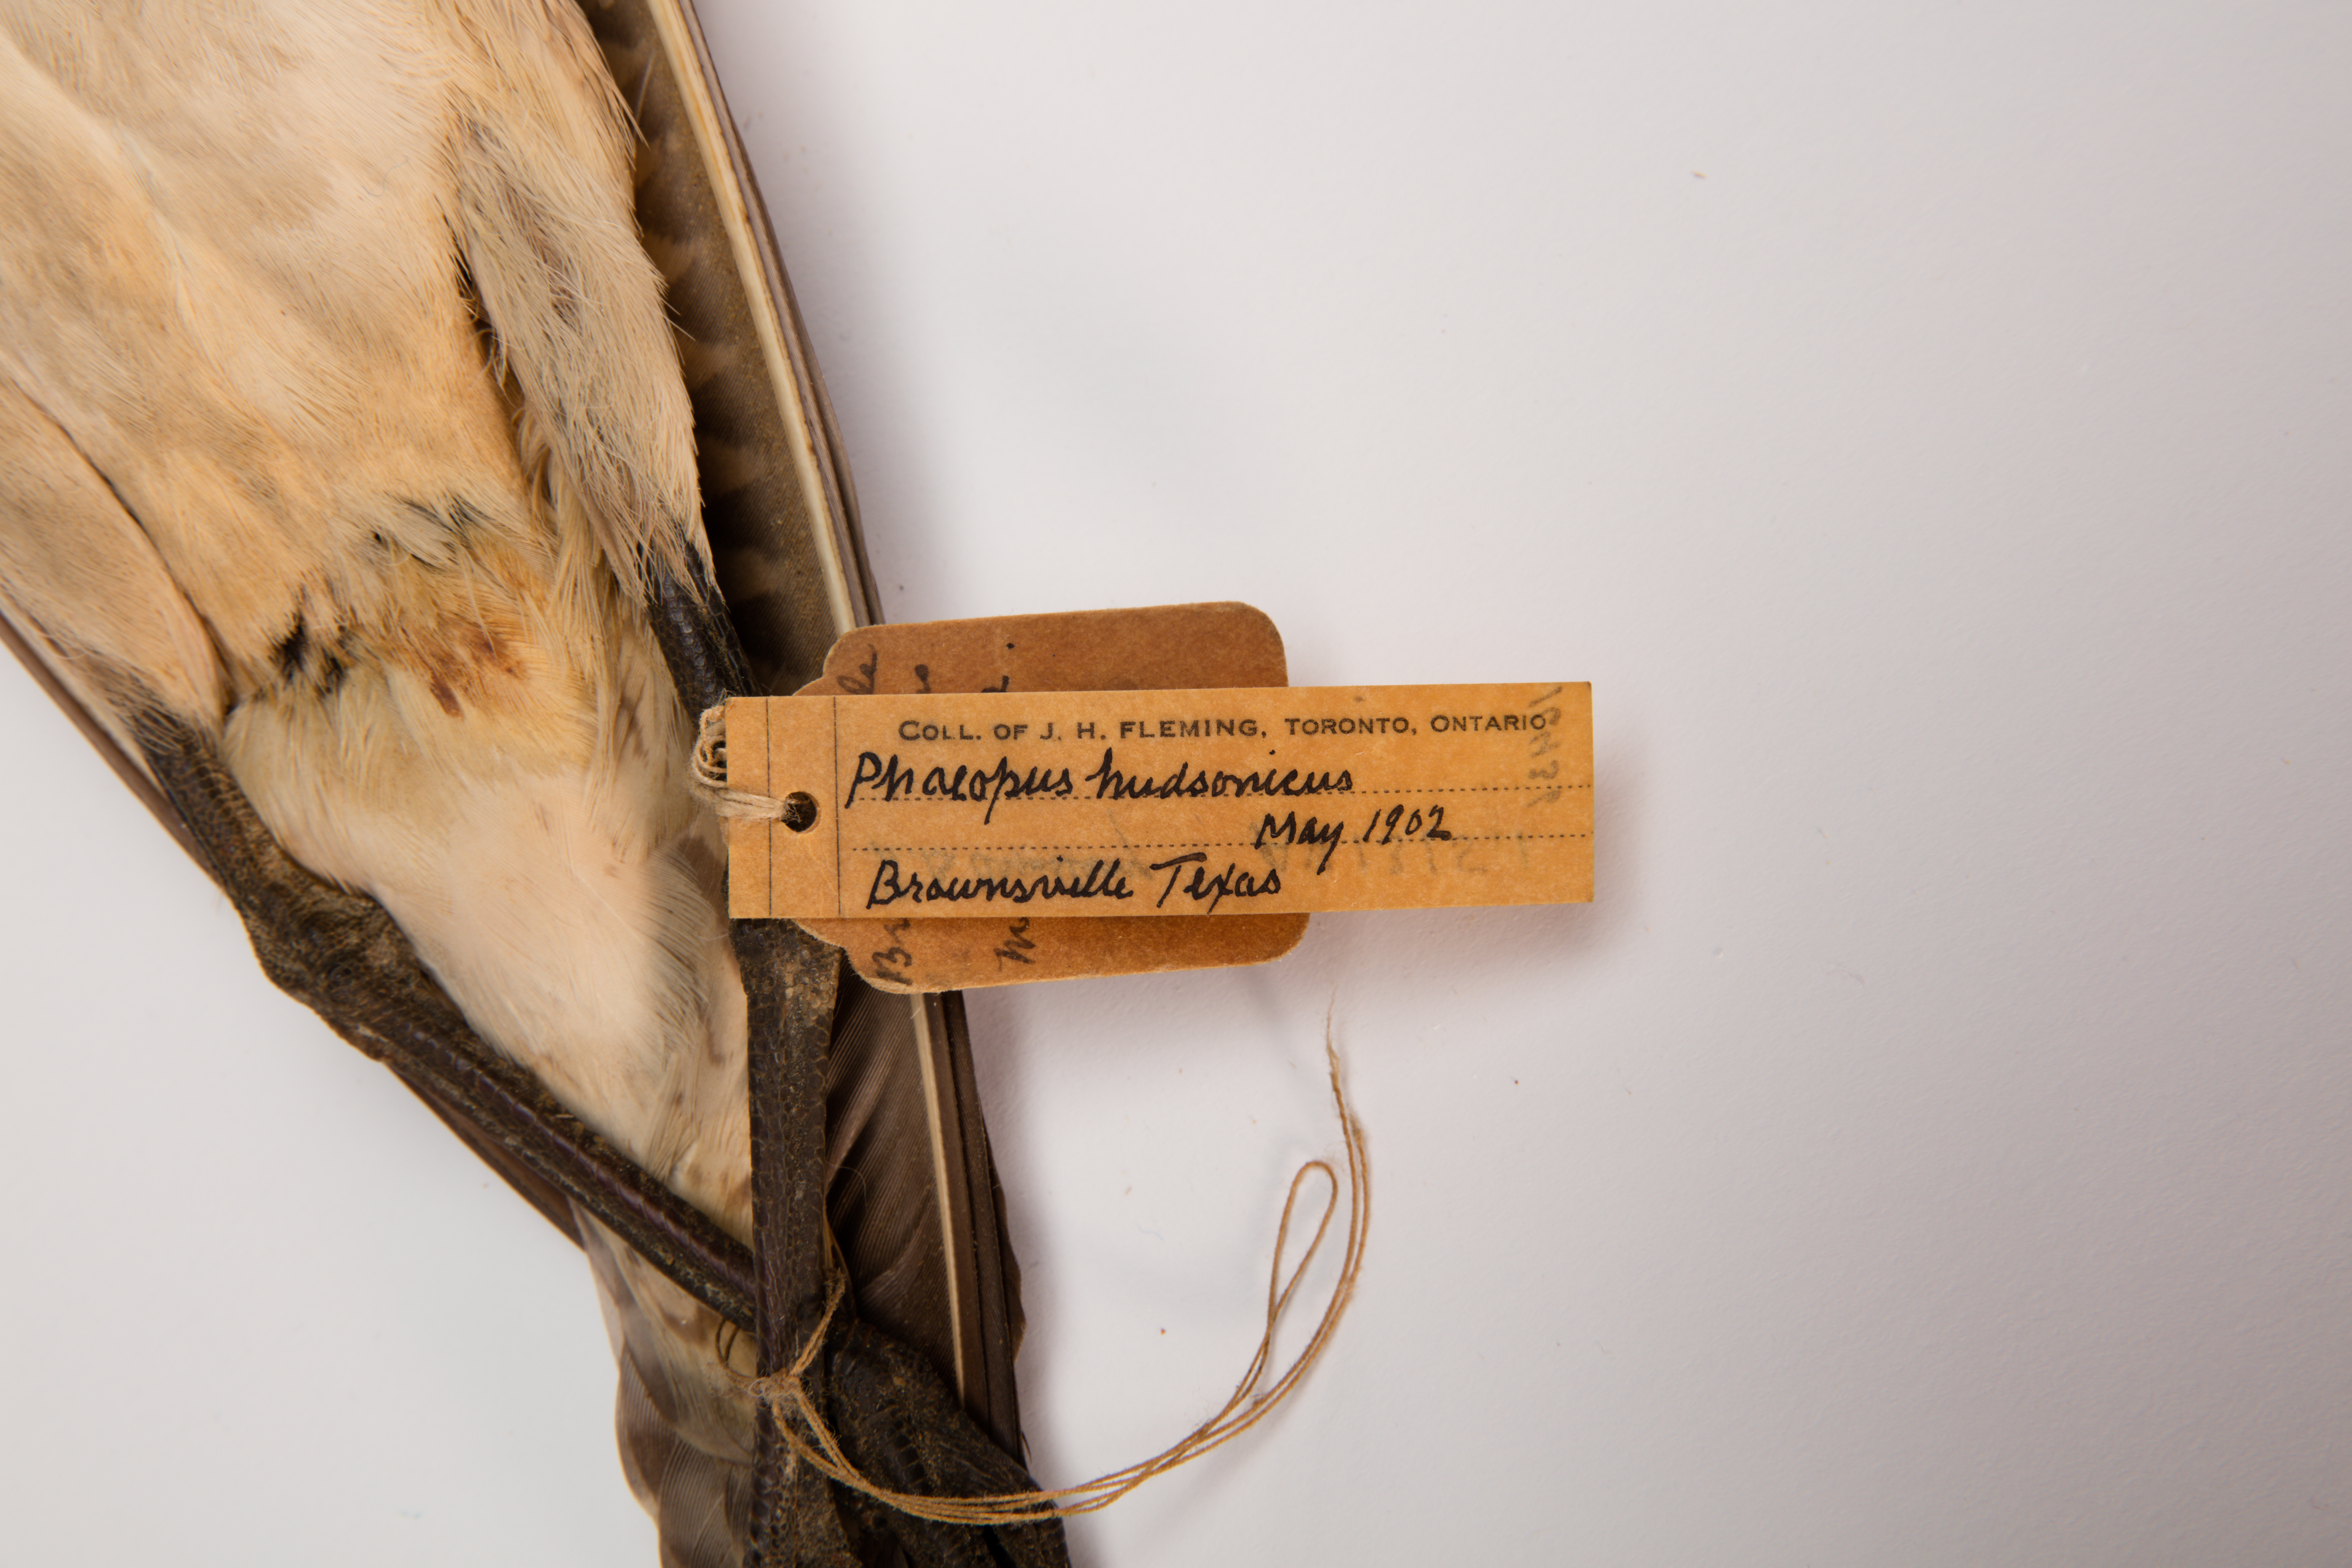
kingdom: Animalia
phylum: Chordata
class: Aves
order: Charadriiformes
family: Scolopacidae
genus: Numenius
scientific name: Numenius phaeopus
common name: Whimbrel
